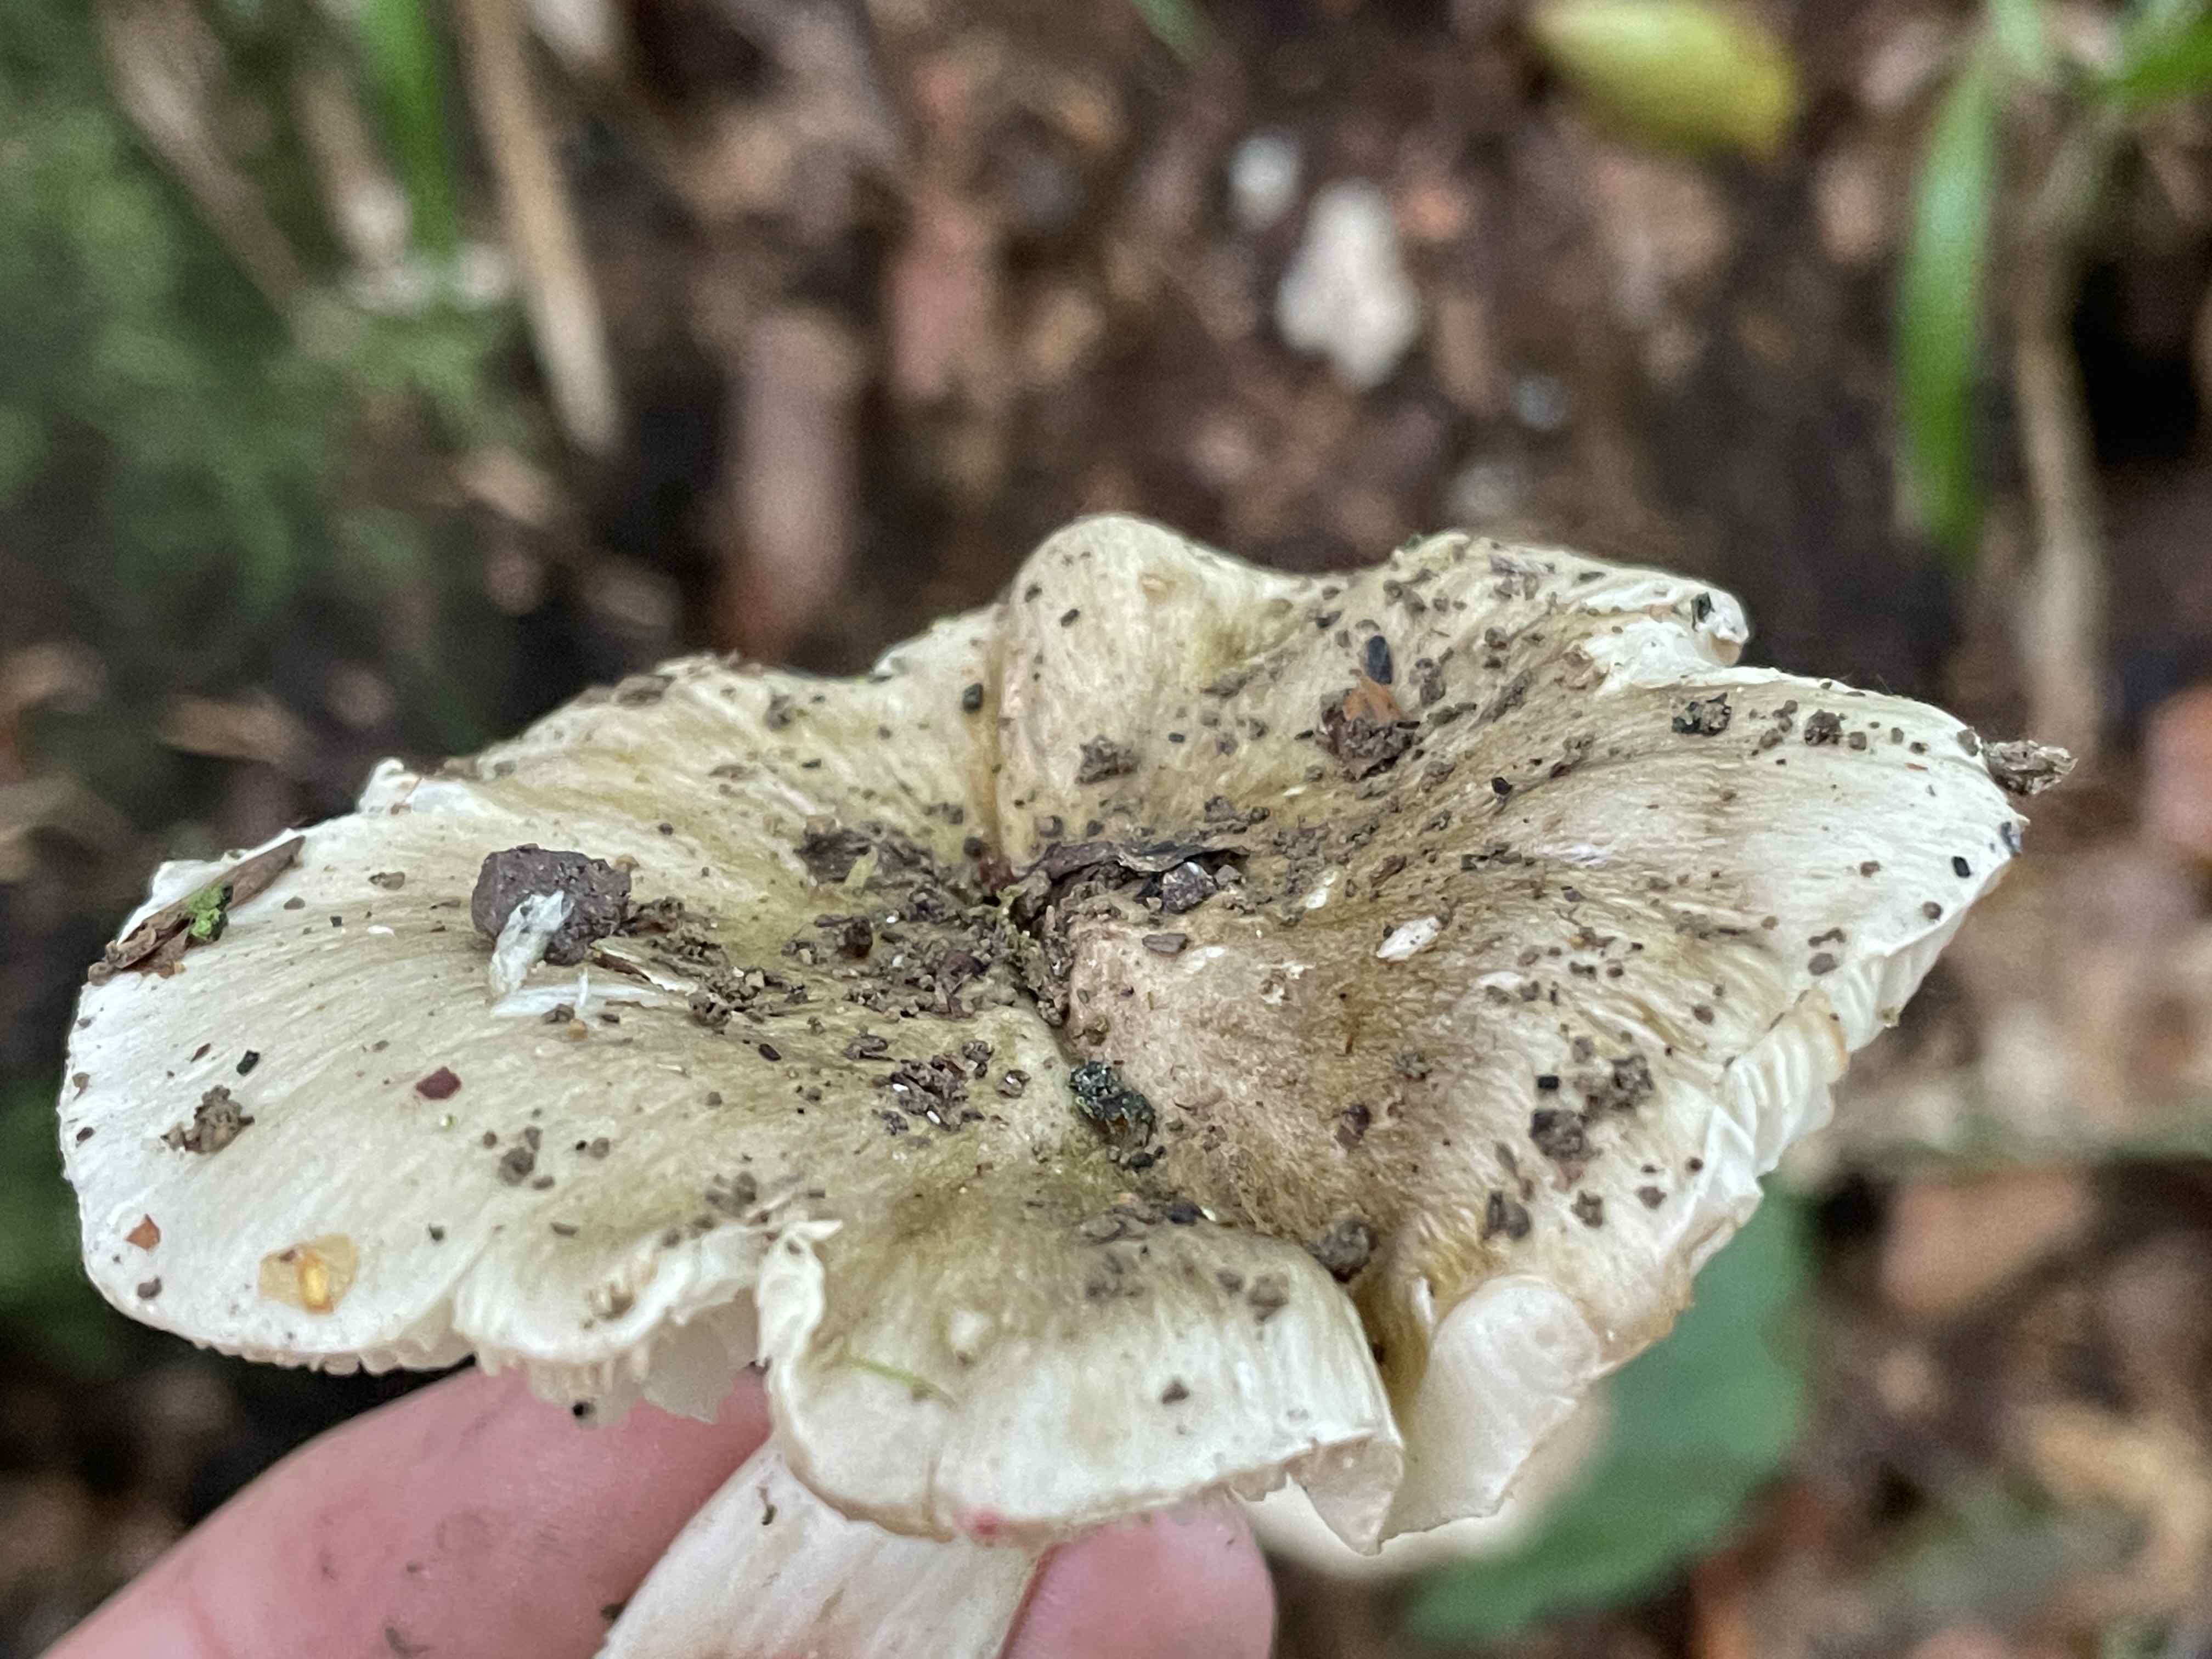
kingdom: Fungi
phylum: Basidiomycota
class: Agaricomycetes
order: Agaricales
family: Tricholomataceae
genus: Tricholoma
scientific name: Tricholoma
